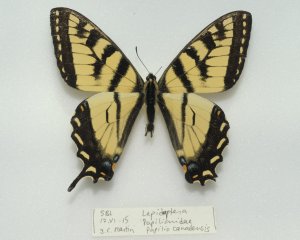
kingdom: Animalia
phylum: Arthropoda
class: Insecta
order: Lepidoptera
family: Papilionidae
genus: Pterourus
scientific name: Pterourus canadensis
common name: Canadian Tiger Swallowtail
